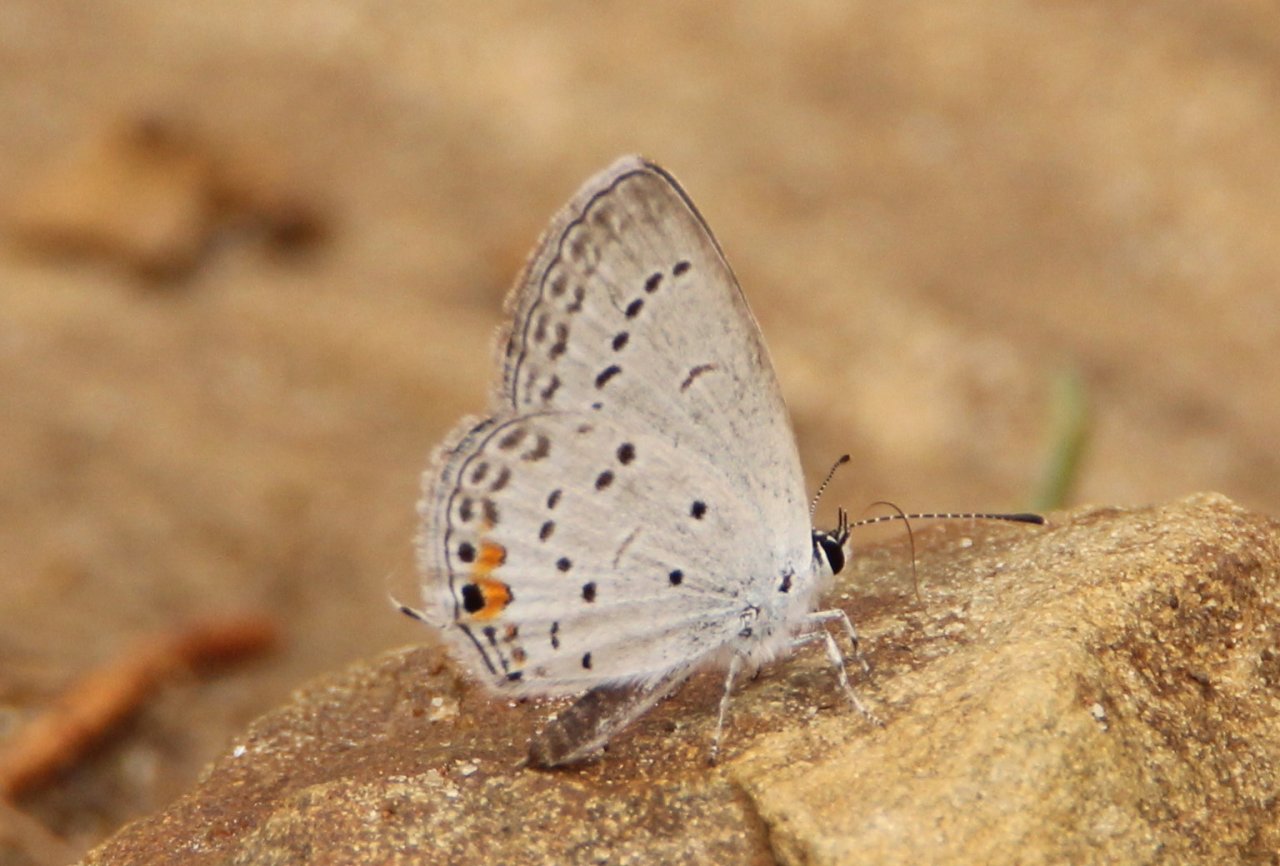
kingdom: Animalia
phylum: Arthropoda
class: Insecta
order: Lepidoptera
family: Lycaenidae
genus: Elkalyce
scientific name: Elkalyce comyntas
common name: Eastern Tailed-Blue
